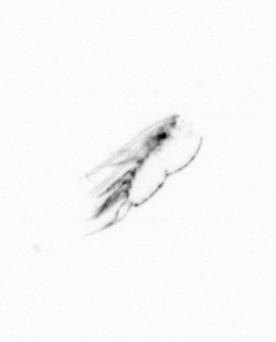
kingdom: Animalia
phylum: Arthropoda
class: Copepoda
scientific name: Copepoda
